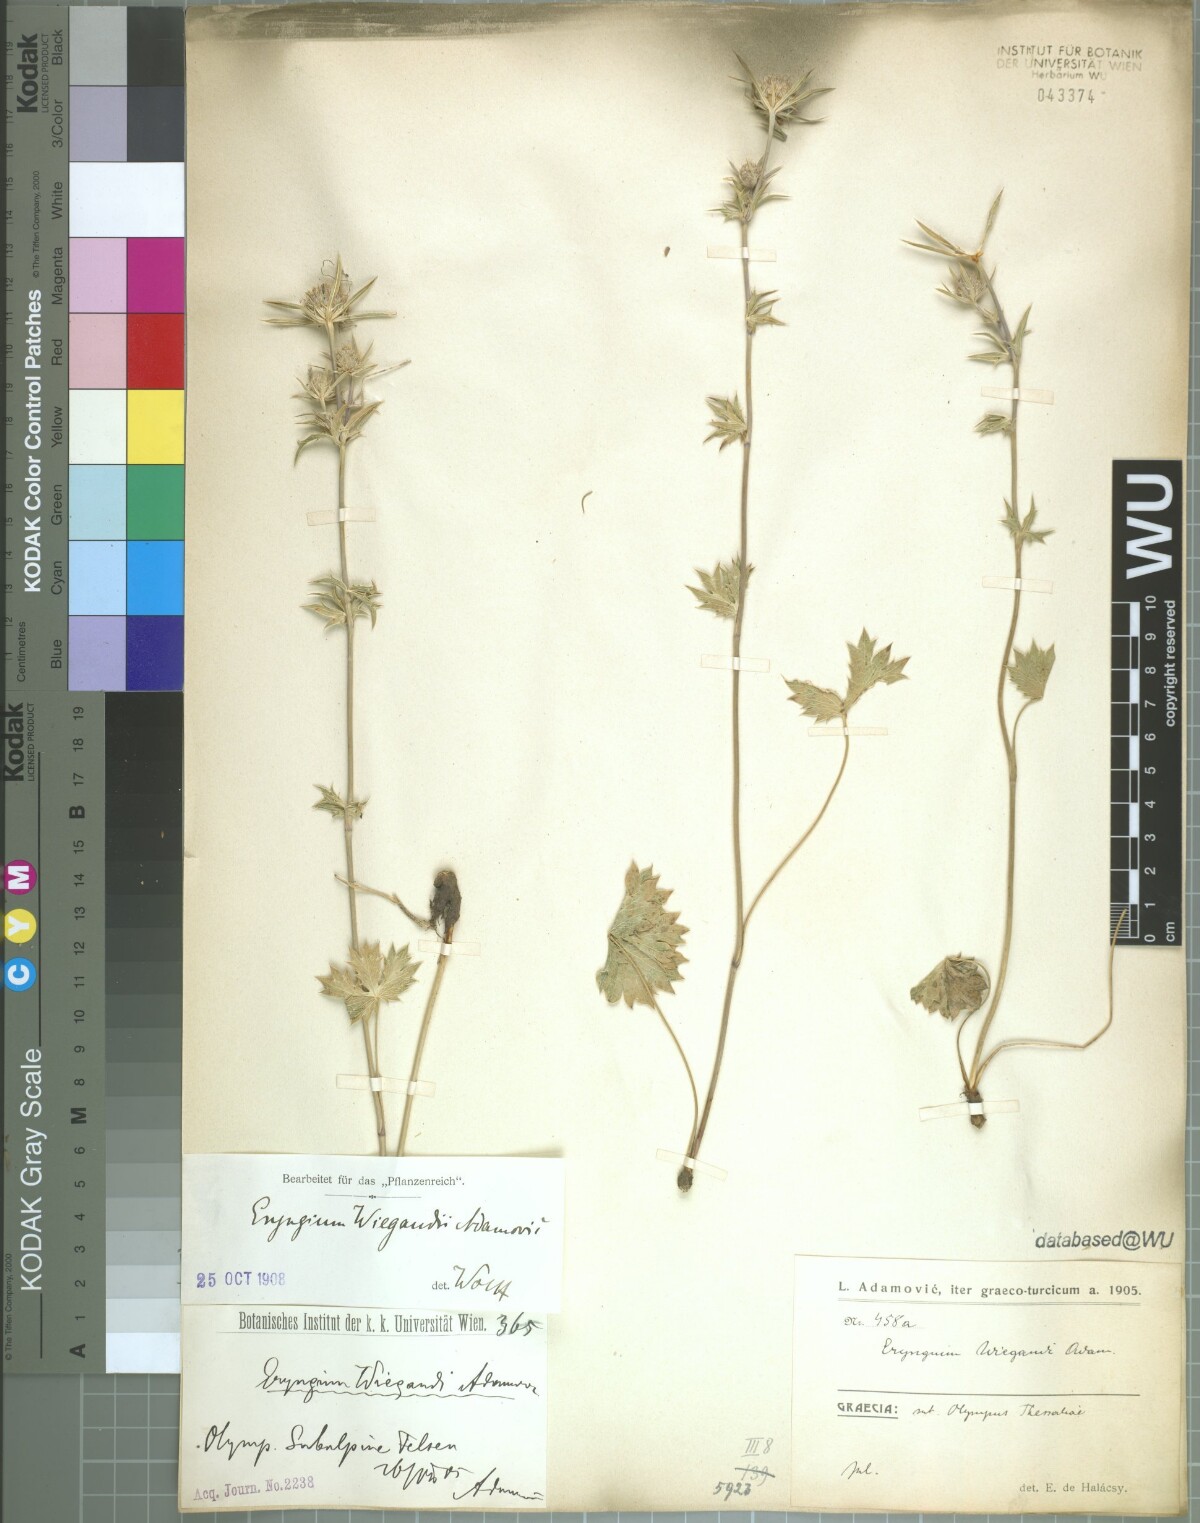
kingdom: Plantae
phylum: Tracheophyta
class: Magnoliopsida
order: Apiales
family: Apiaceae
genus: Eryngium
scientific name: Eryngium wiegandii
